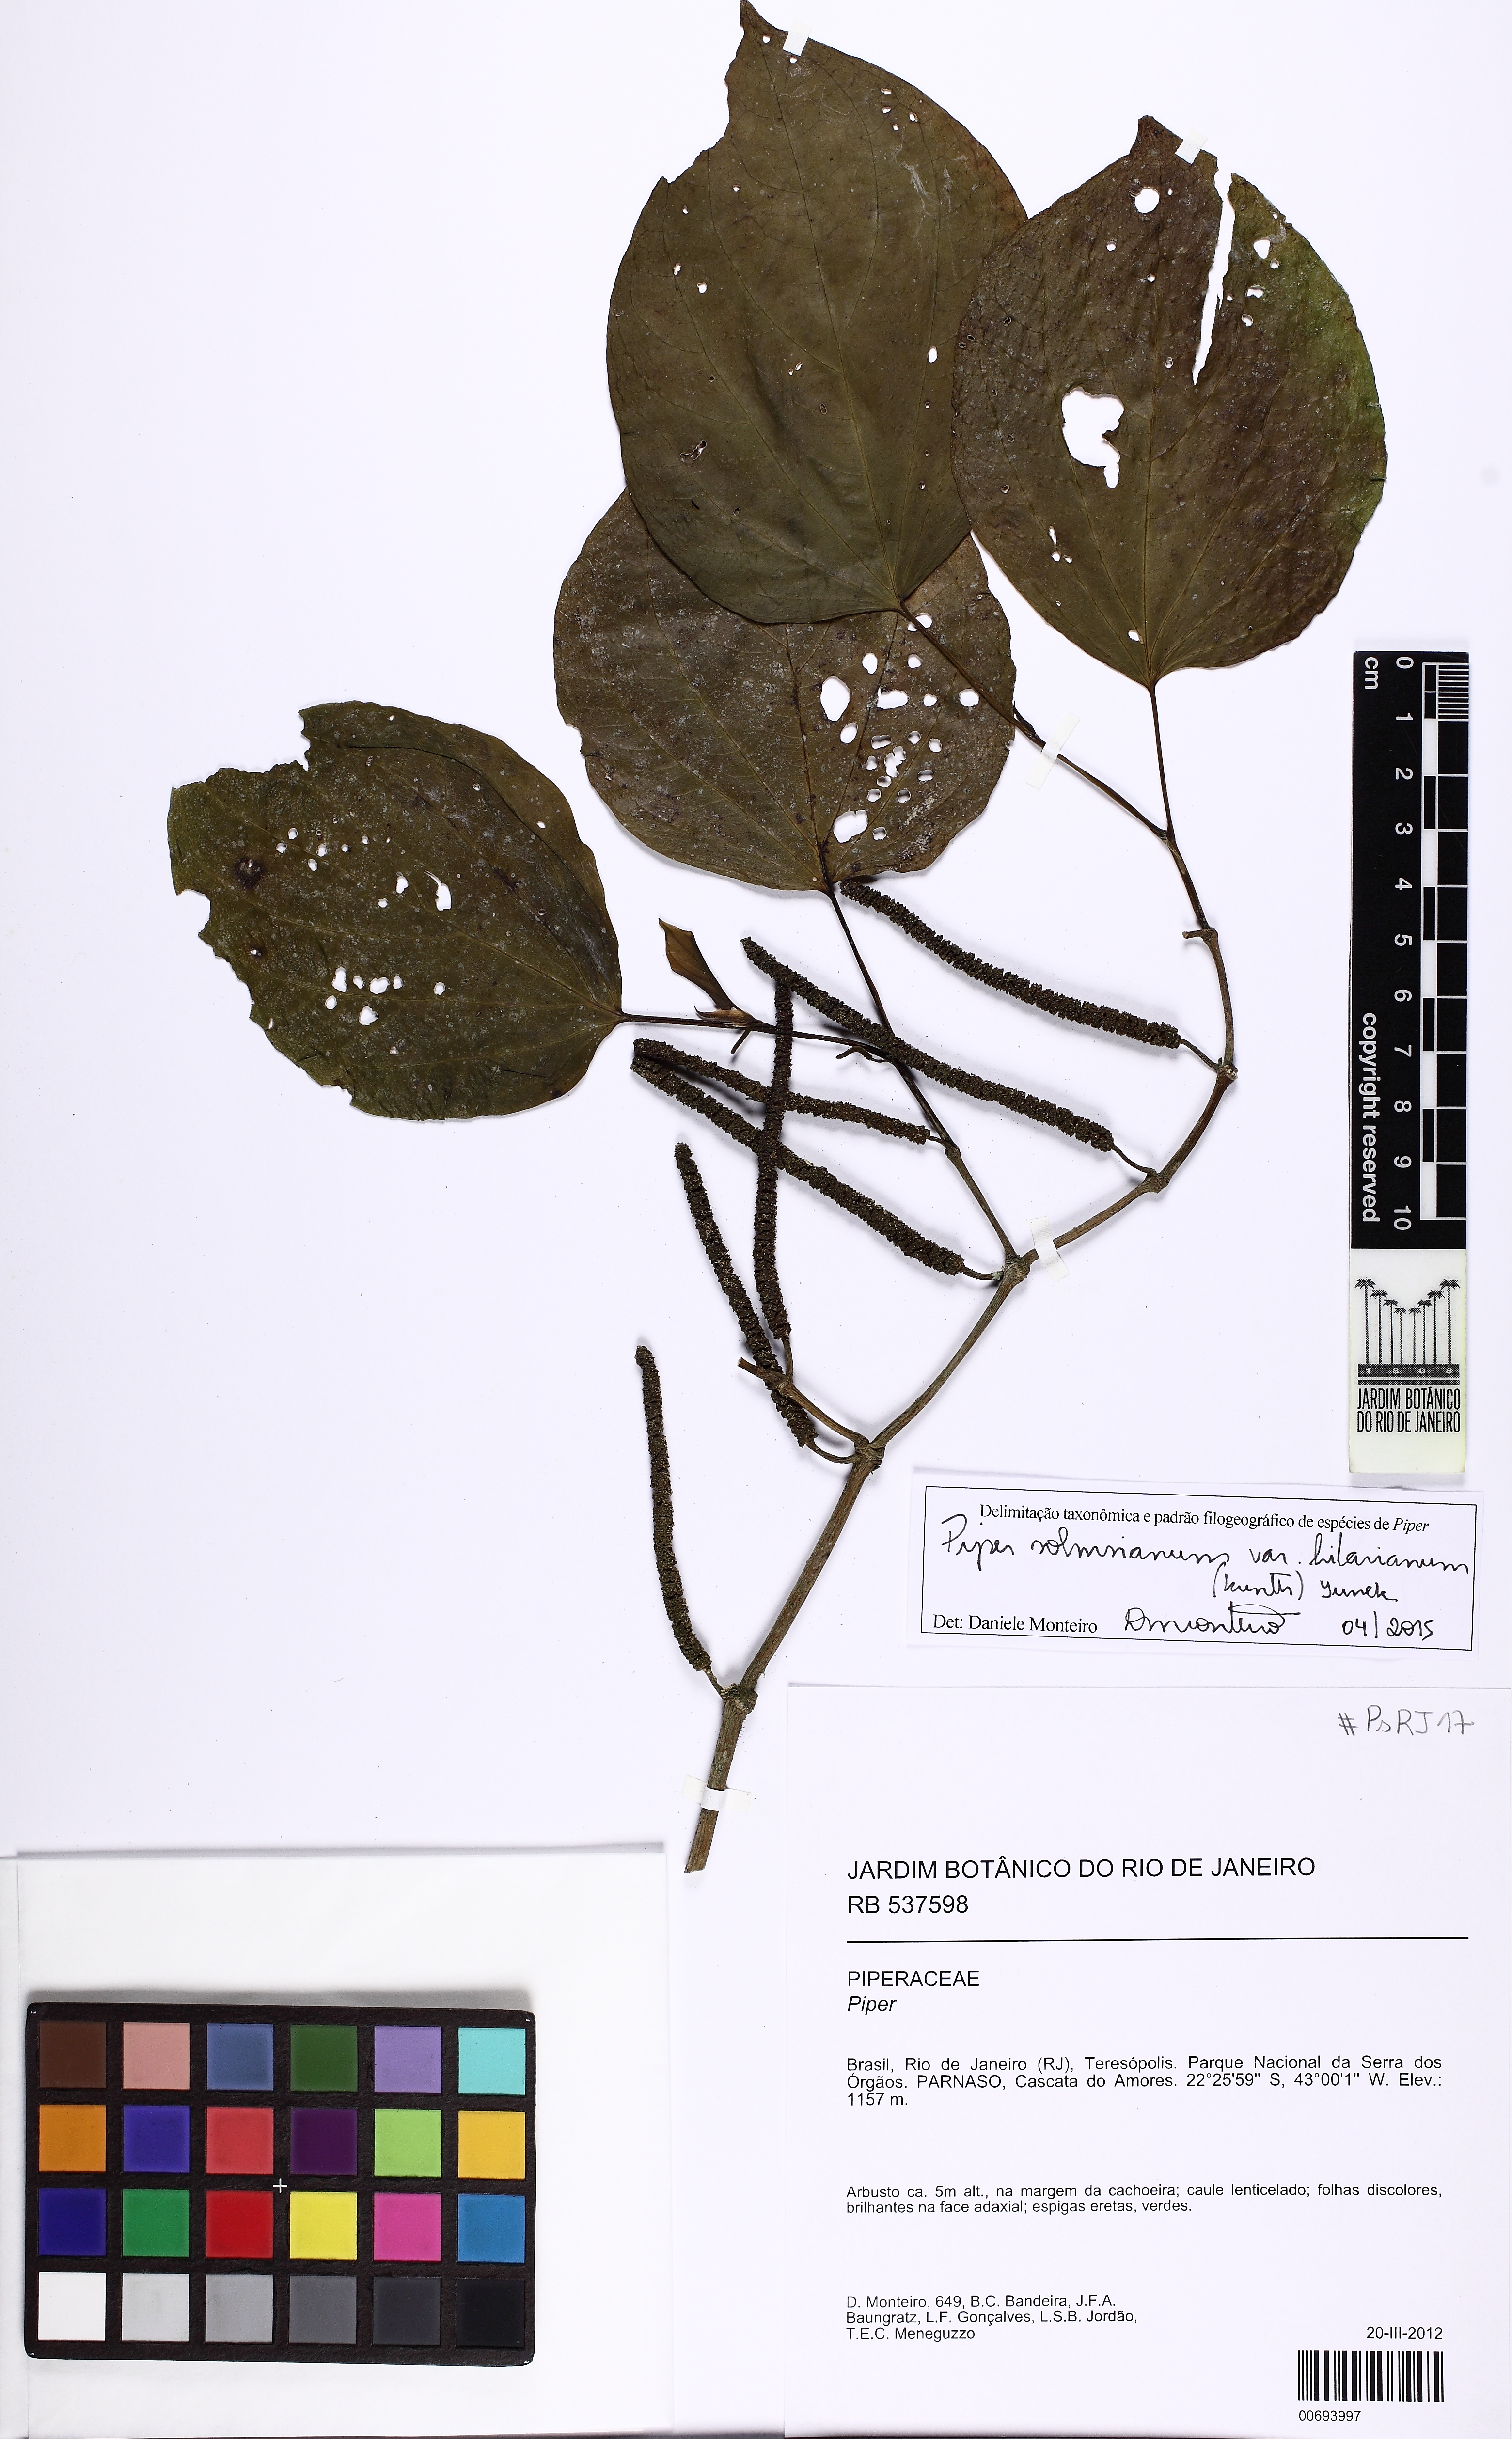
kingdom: Plantae
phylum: Tracheophyta
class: Magnoliopsida
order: Piperales
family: Piperaceae
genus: Piper
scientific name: Piper solmsianum
